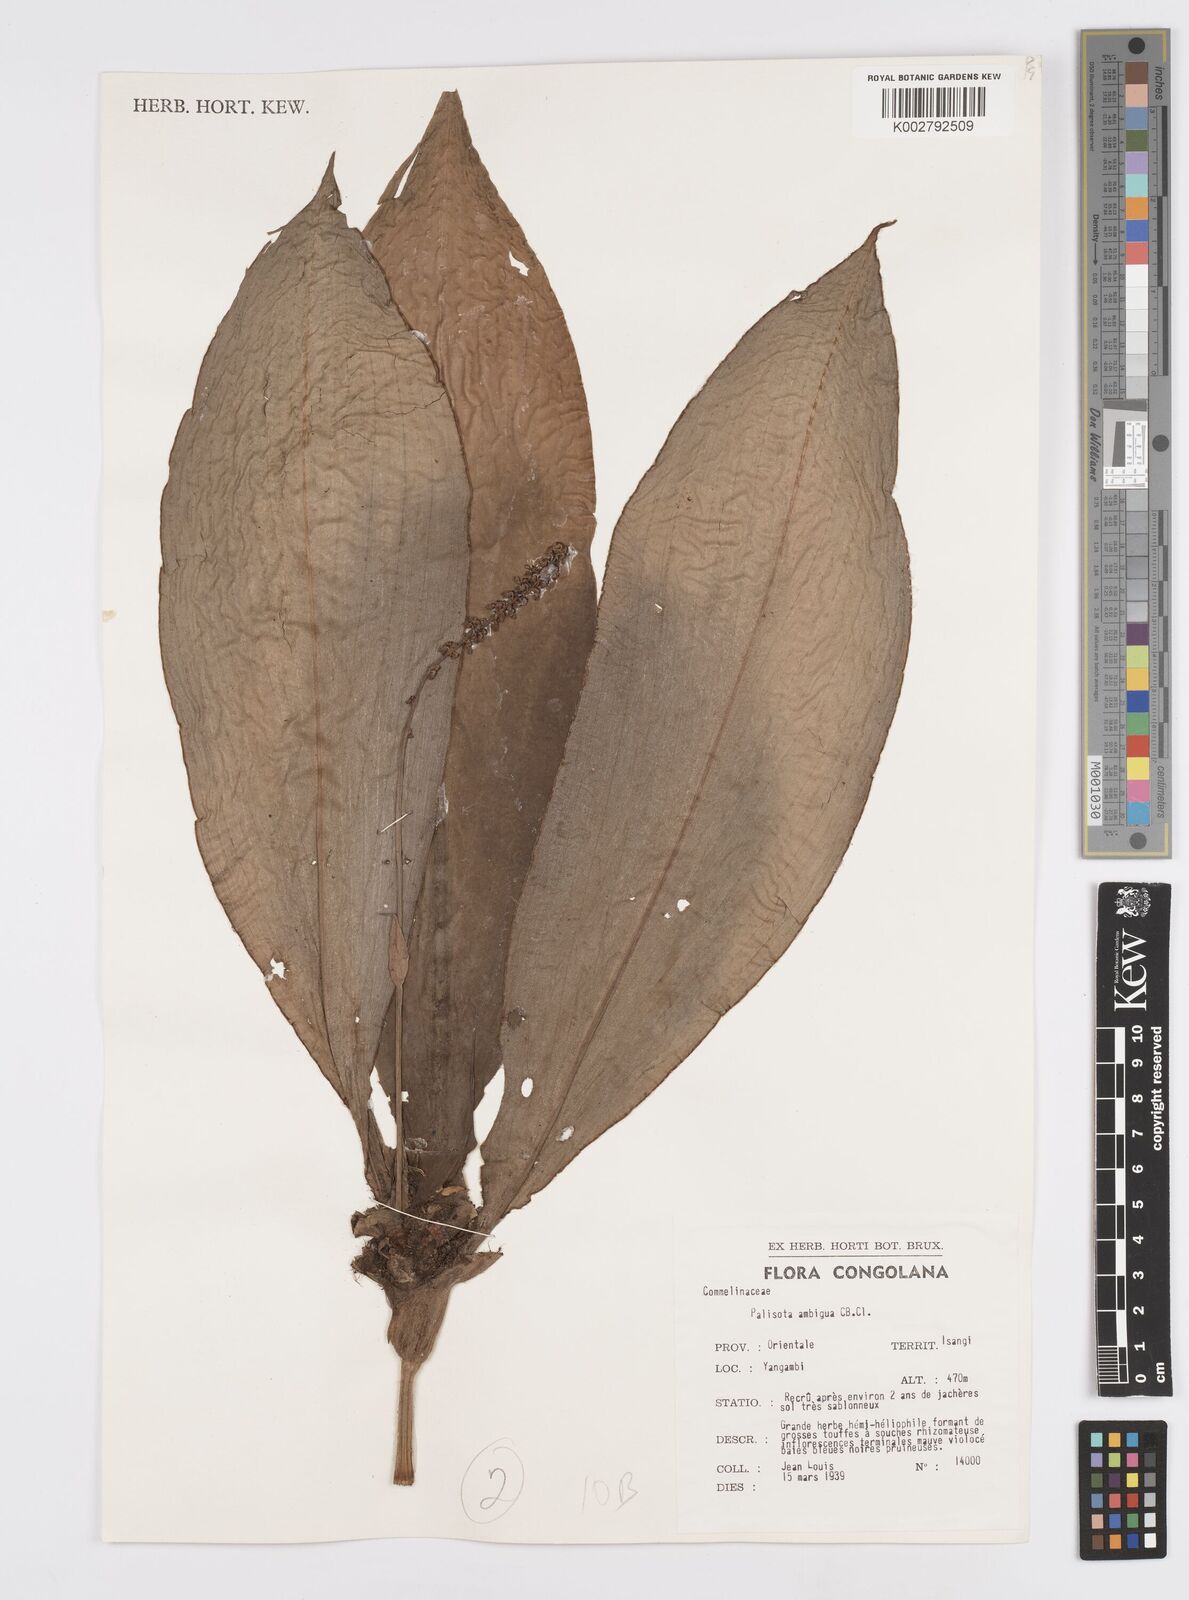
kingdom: Plantae
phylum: Tracheophyta
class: Liliopsida
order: Commelinales
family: Commelinaceae
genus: Palisota
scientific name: Palisota ambigua
